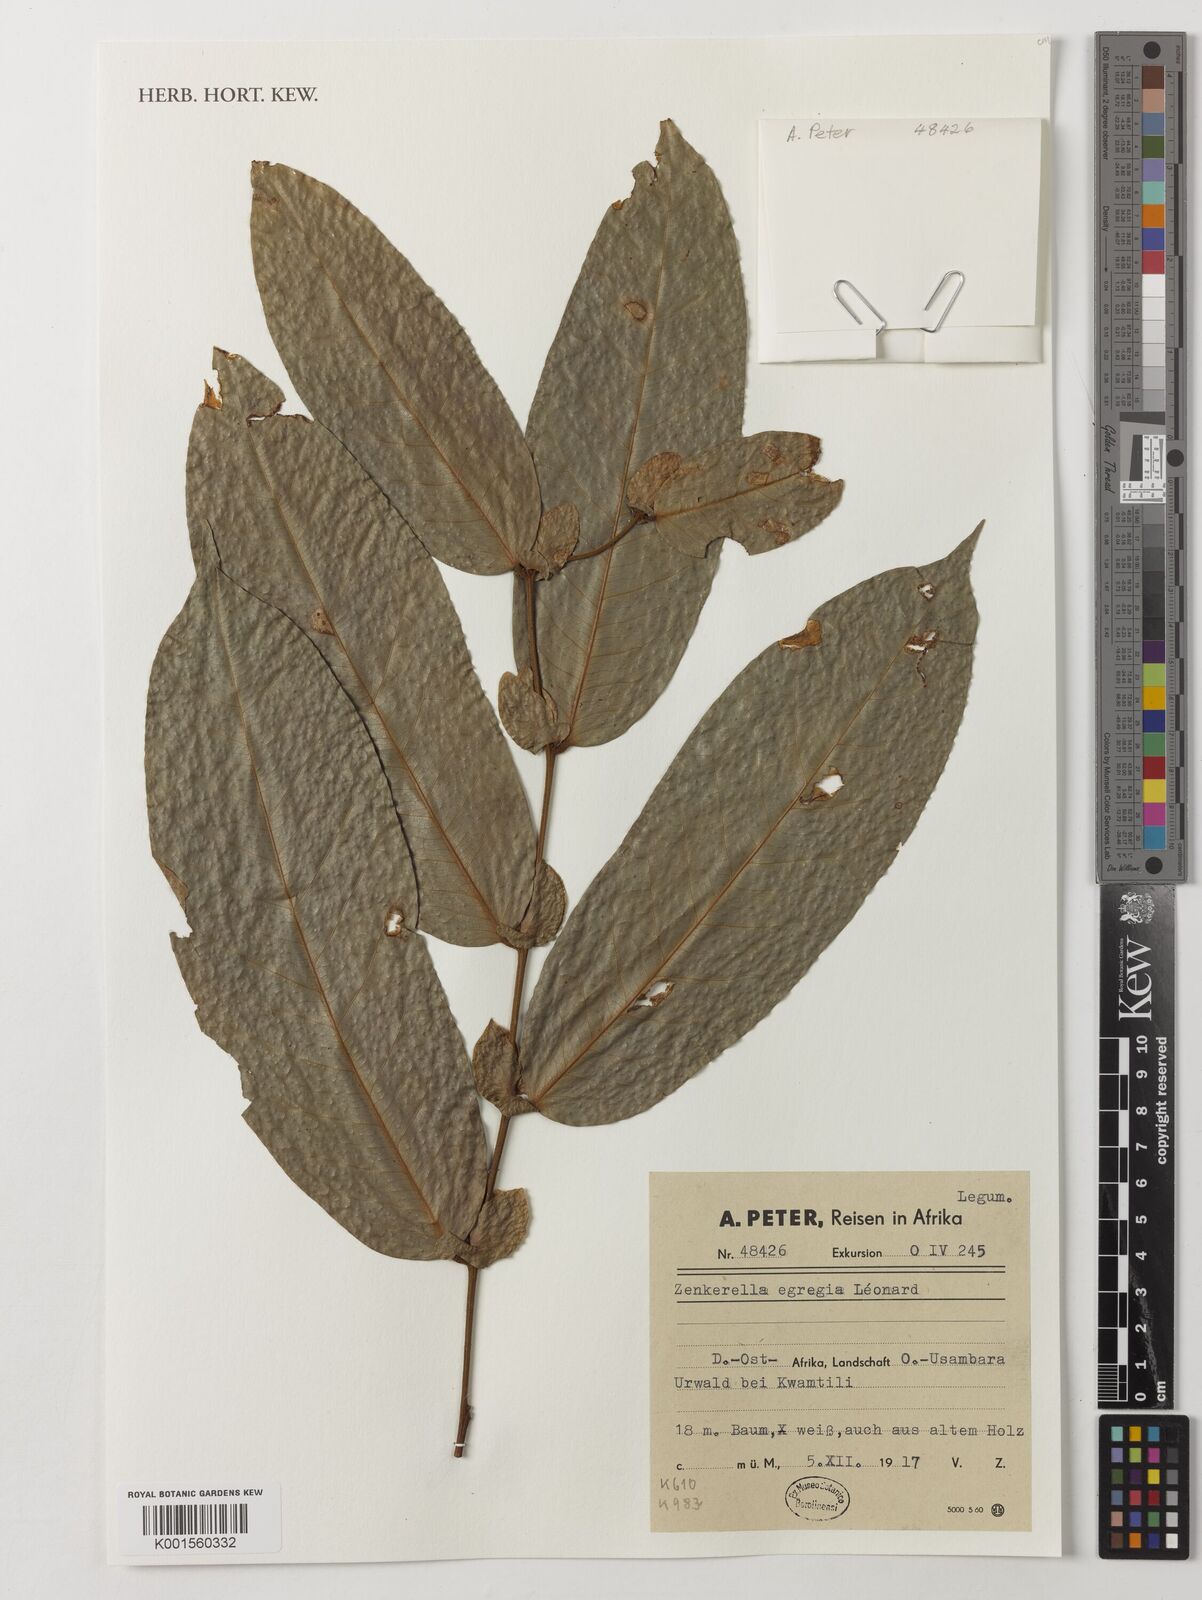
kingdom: Plantae
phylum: Tracheophyta
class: Magnoliopsida
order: Fabales
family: Fabaceae
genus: Zenkerella
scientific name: Zenkerella egregia
